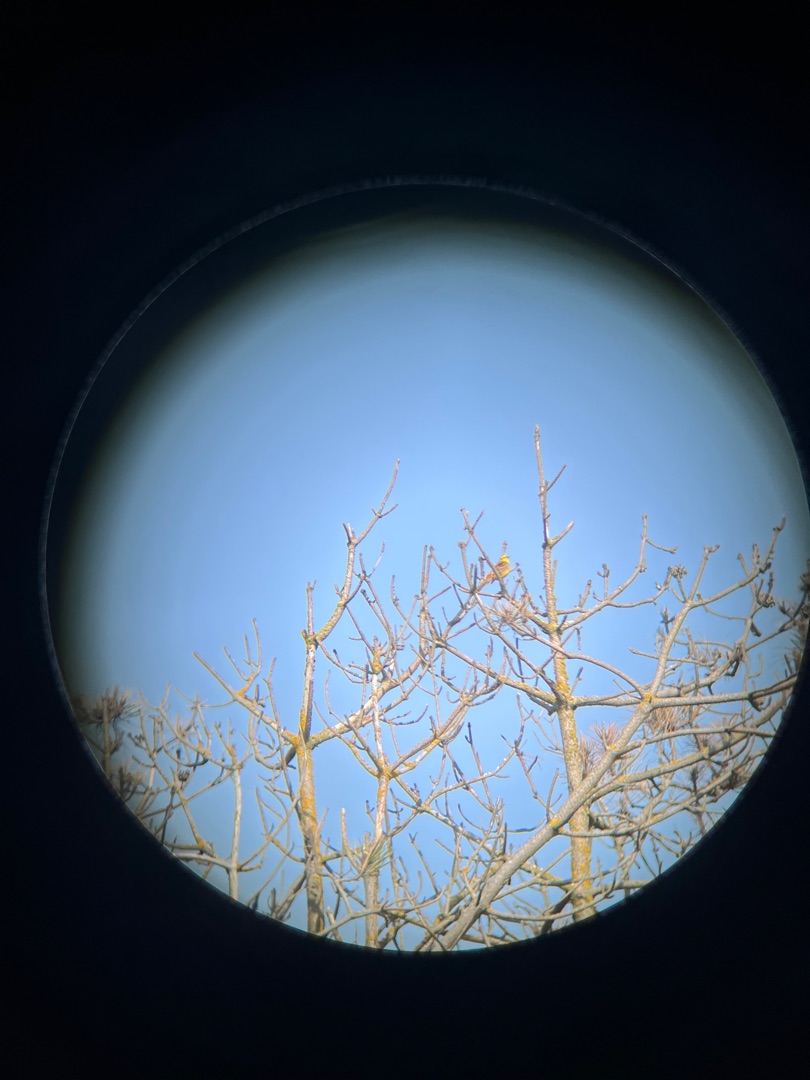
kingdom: Animalia
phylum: Chordata
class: Aves
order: Passeriformes
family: Emberizidae
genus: Emberiza
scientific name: Emberiza citrinella
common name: Gulspurv
